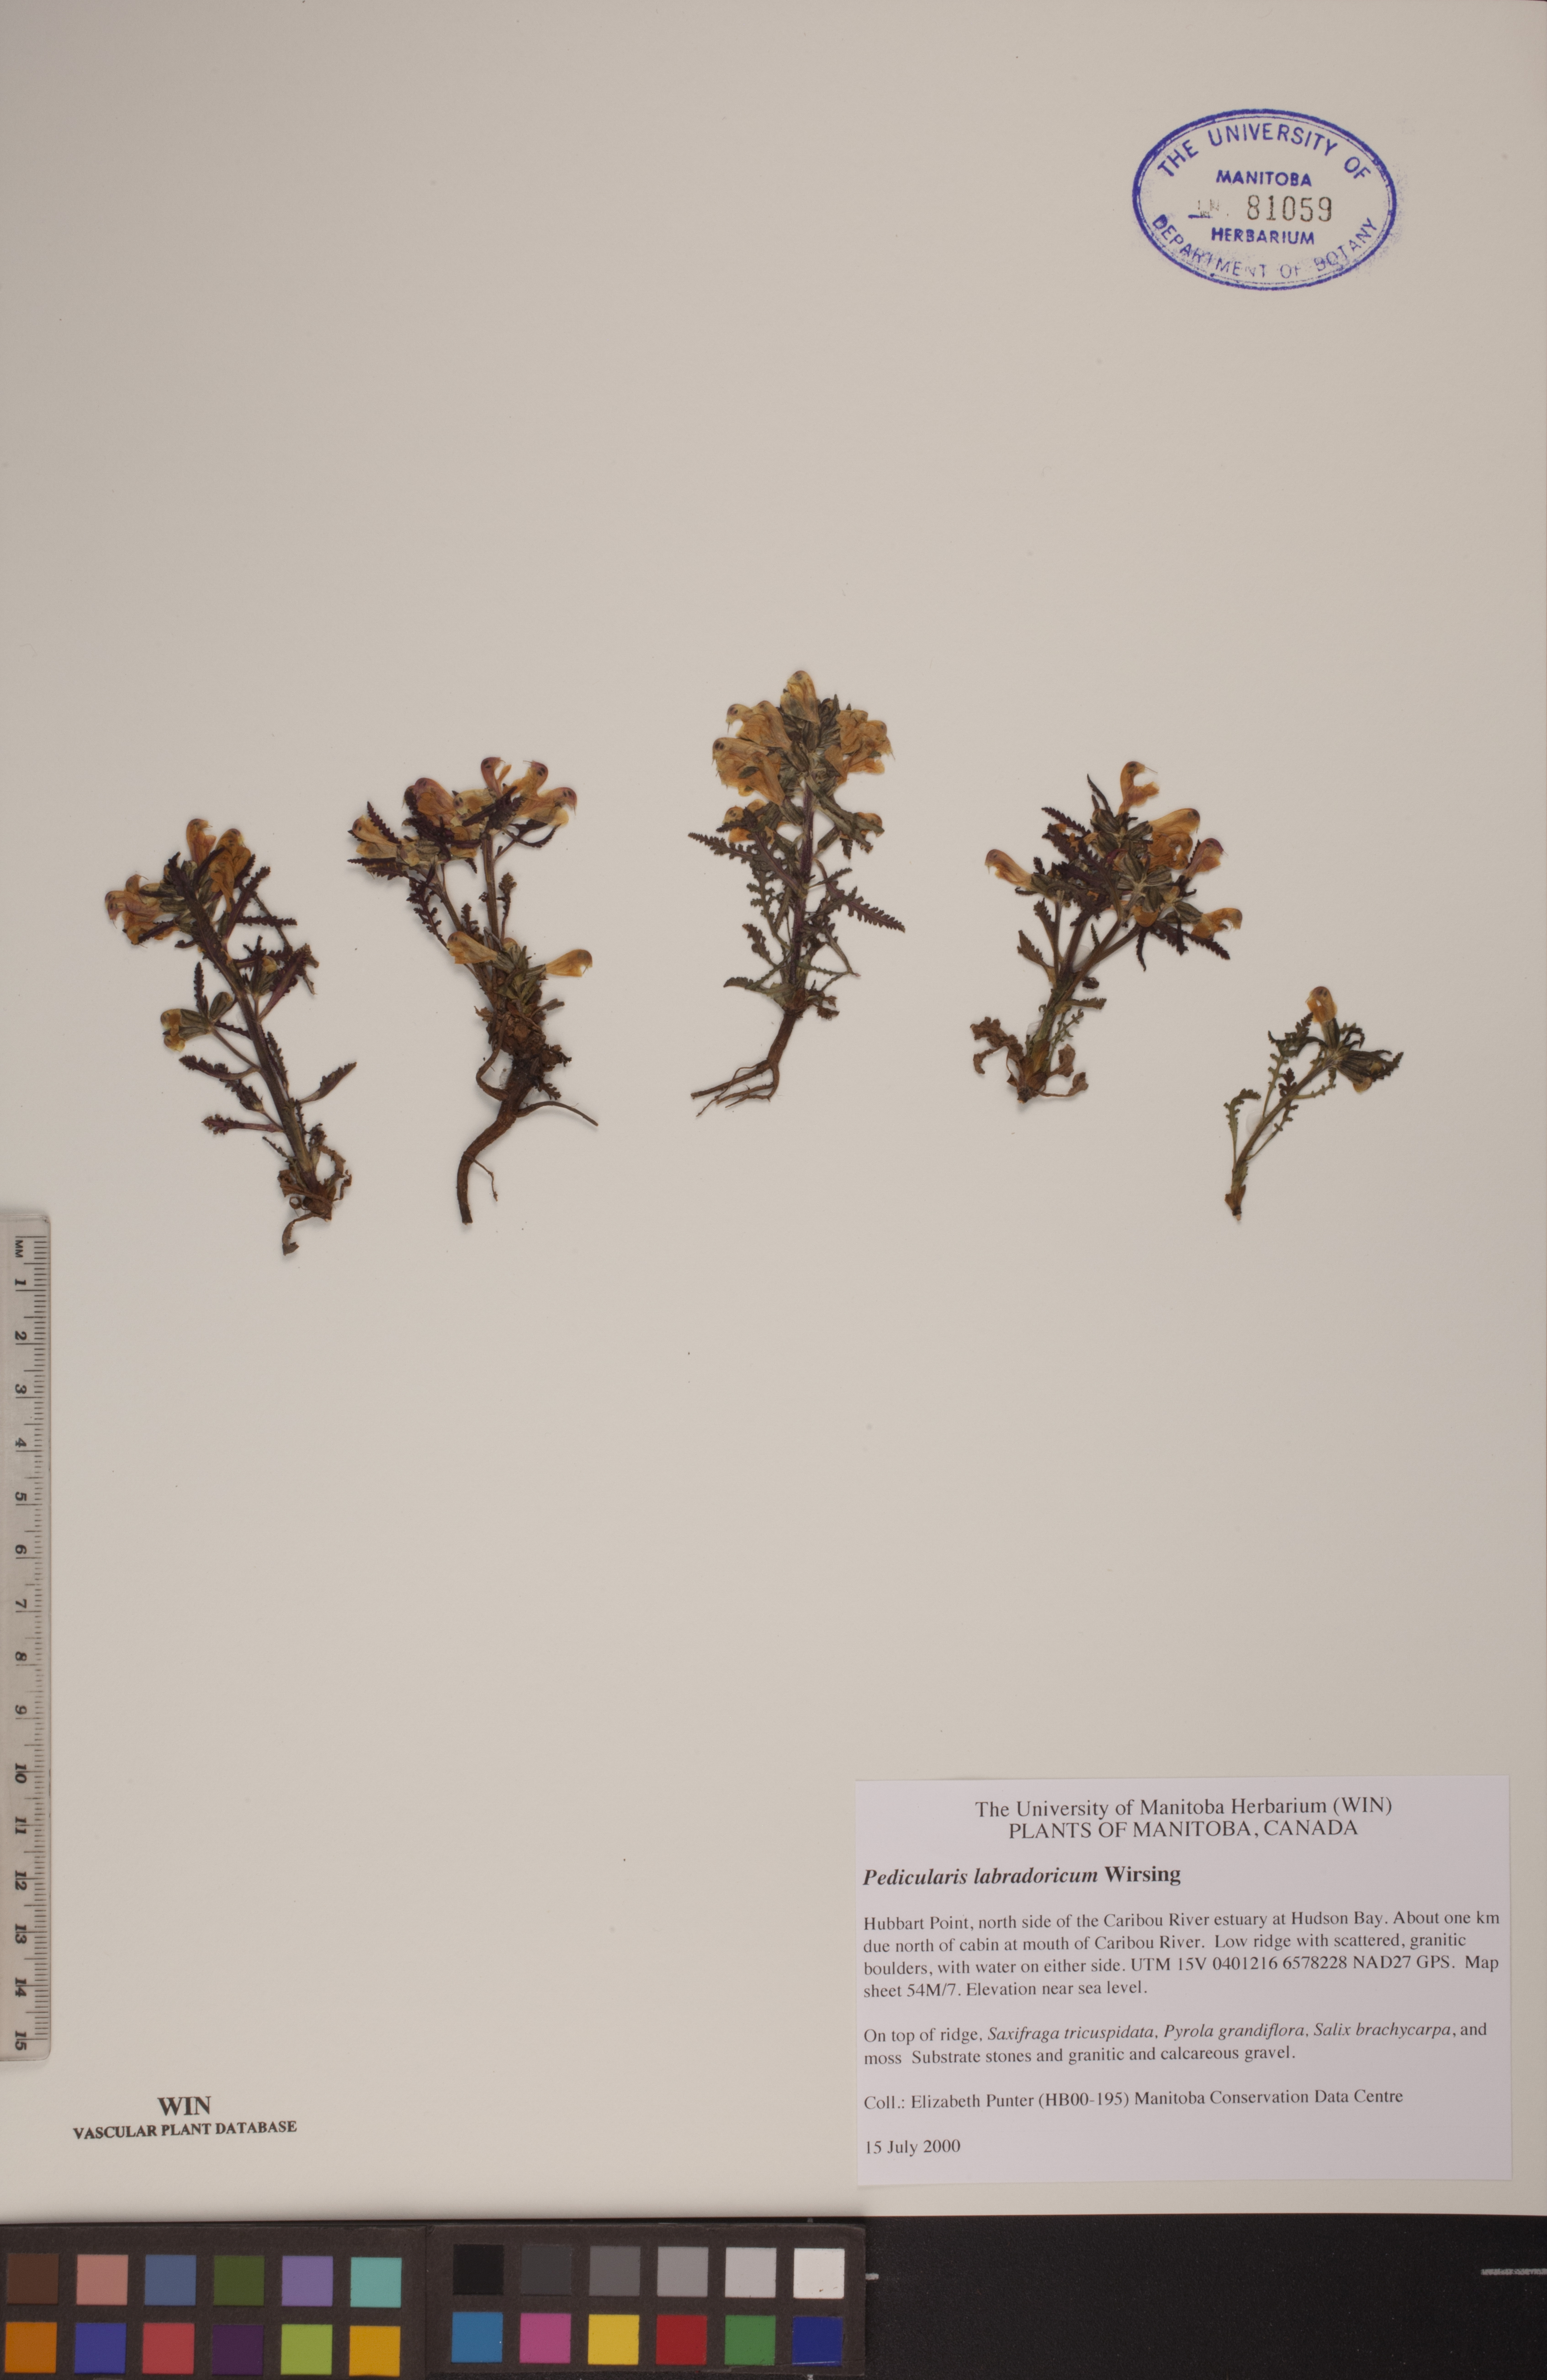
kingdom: Plantae
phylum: Tracheophyta
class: Magnoliopsida
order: Lamiales
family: Orobanchaceae
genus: Pedicularis
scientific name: Pedicularis labradorica
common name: Labrador lousewort
